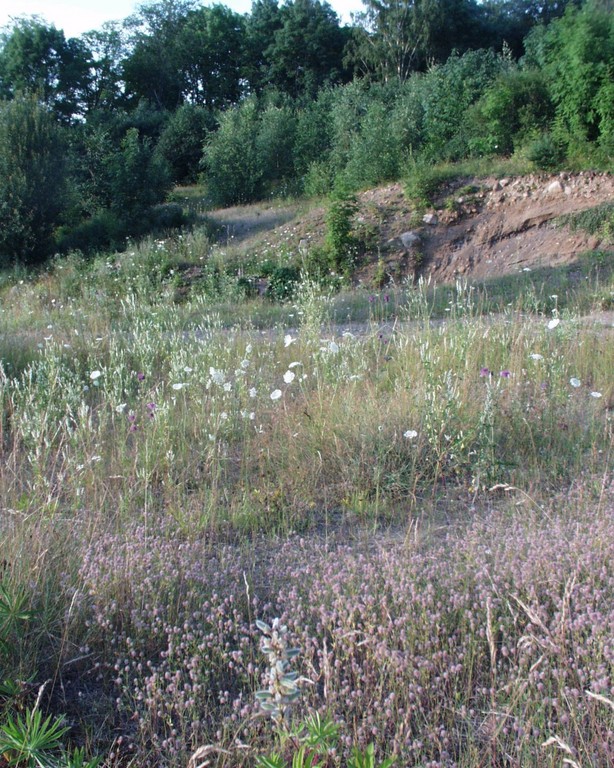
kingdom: Plantae
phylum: Tracheophyta
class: Magnoliopsida
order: Apiales
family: Apiaceae
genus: Daucus
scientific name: Daucus carota
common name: Wild carrot
